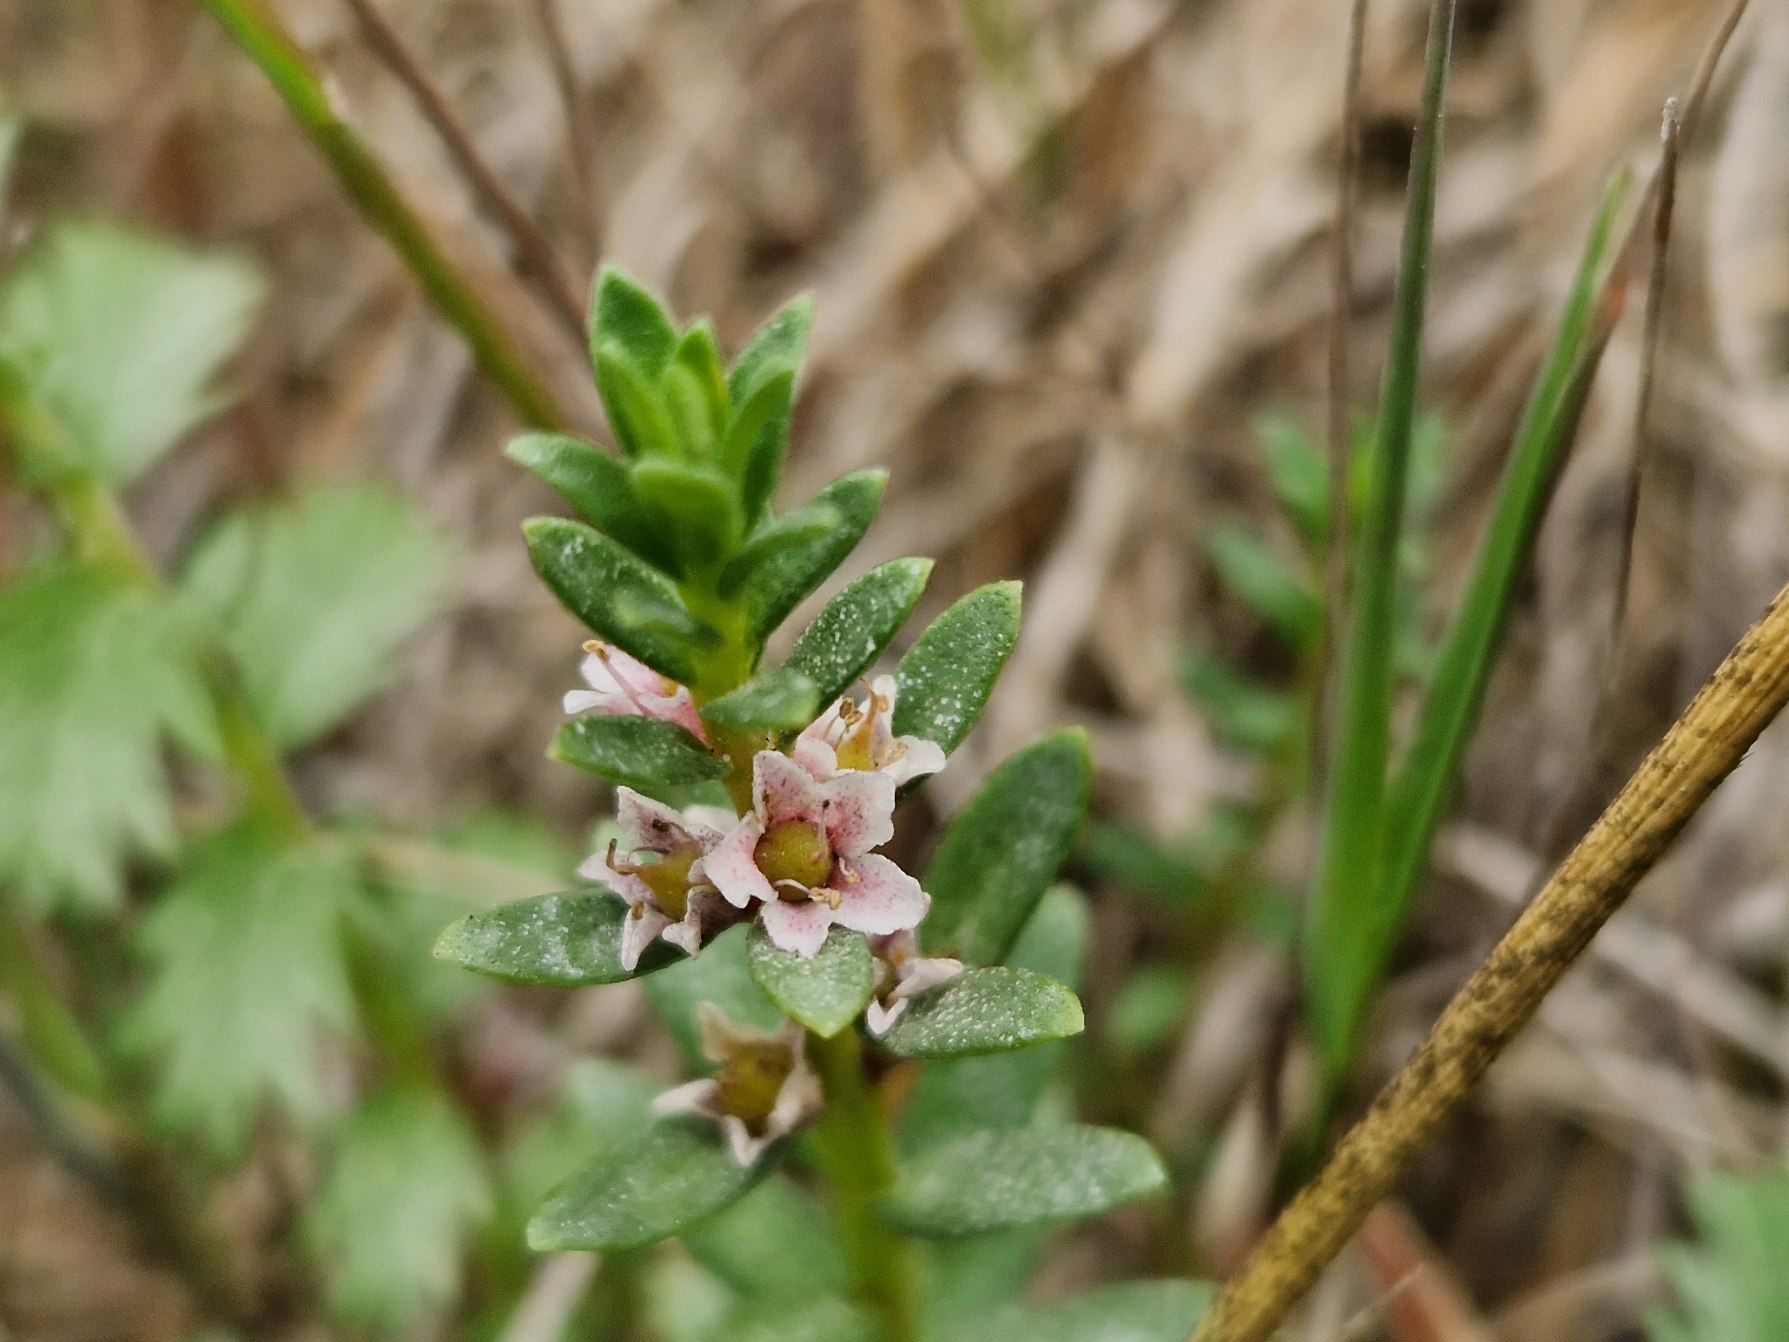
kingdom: Plantae
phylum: Tracheophyta
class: Magnoliopsida
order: Ericales
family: Primulaceae
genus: Lysimachia
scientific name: Lysimachia maritima
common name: Sandkryb
